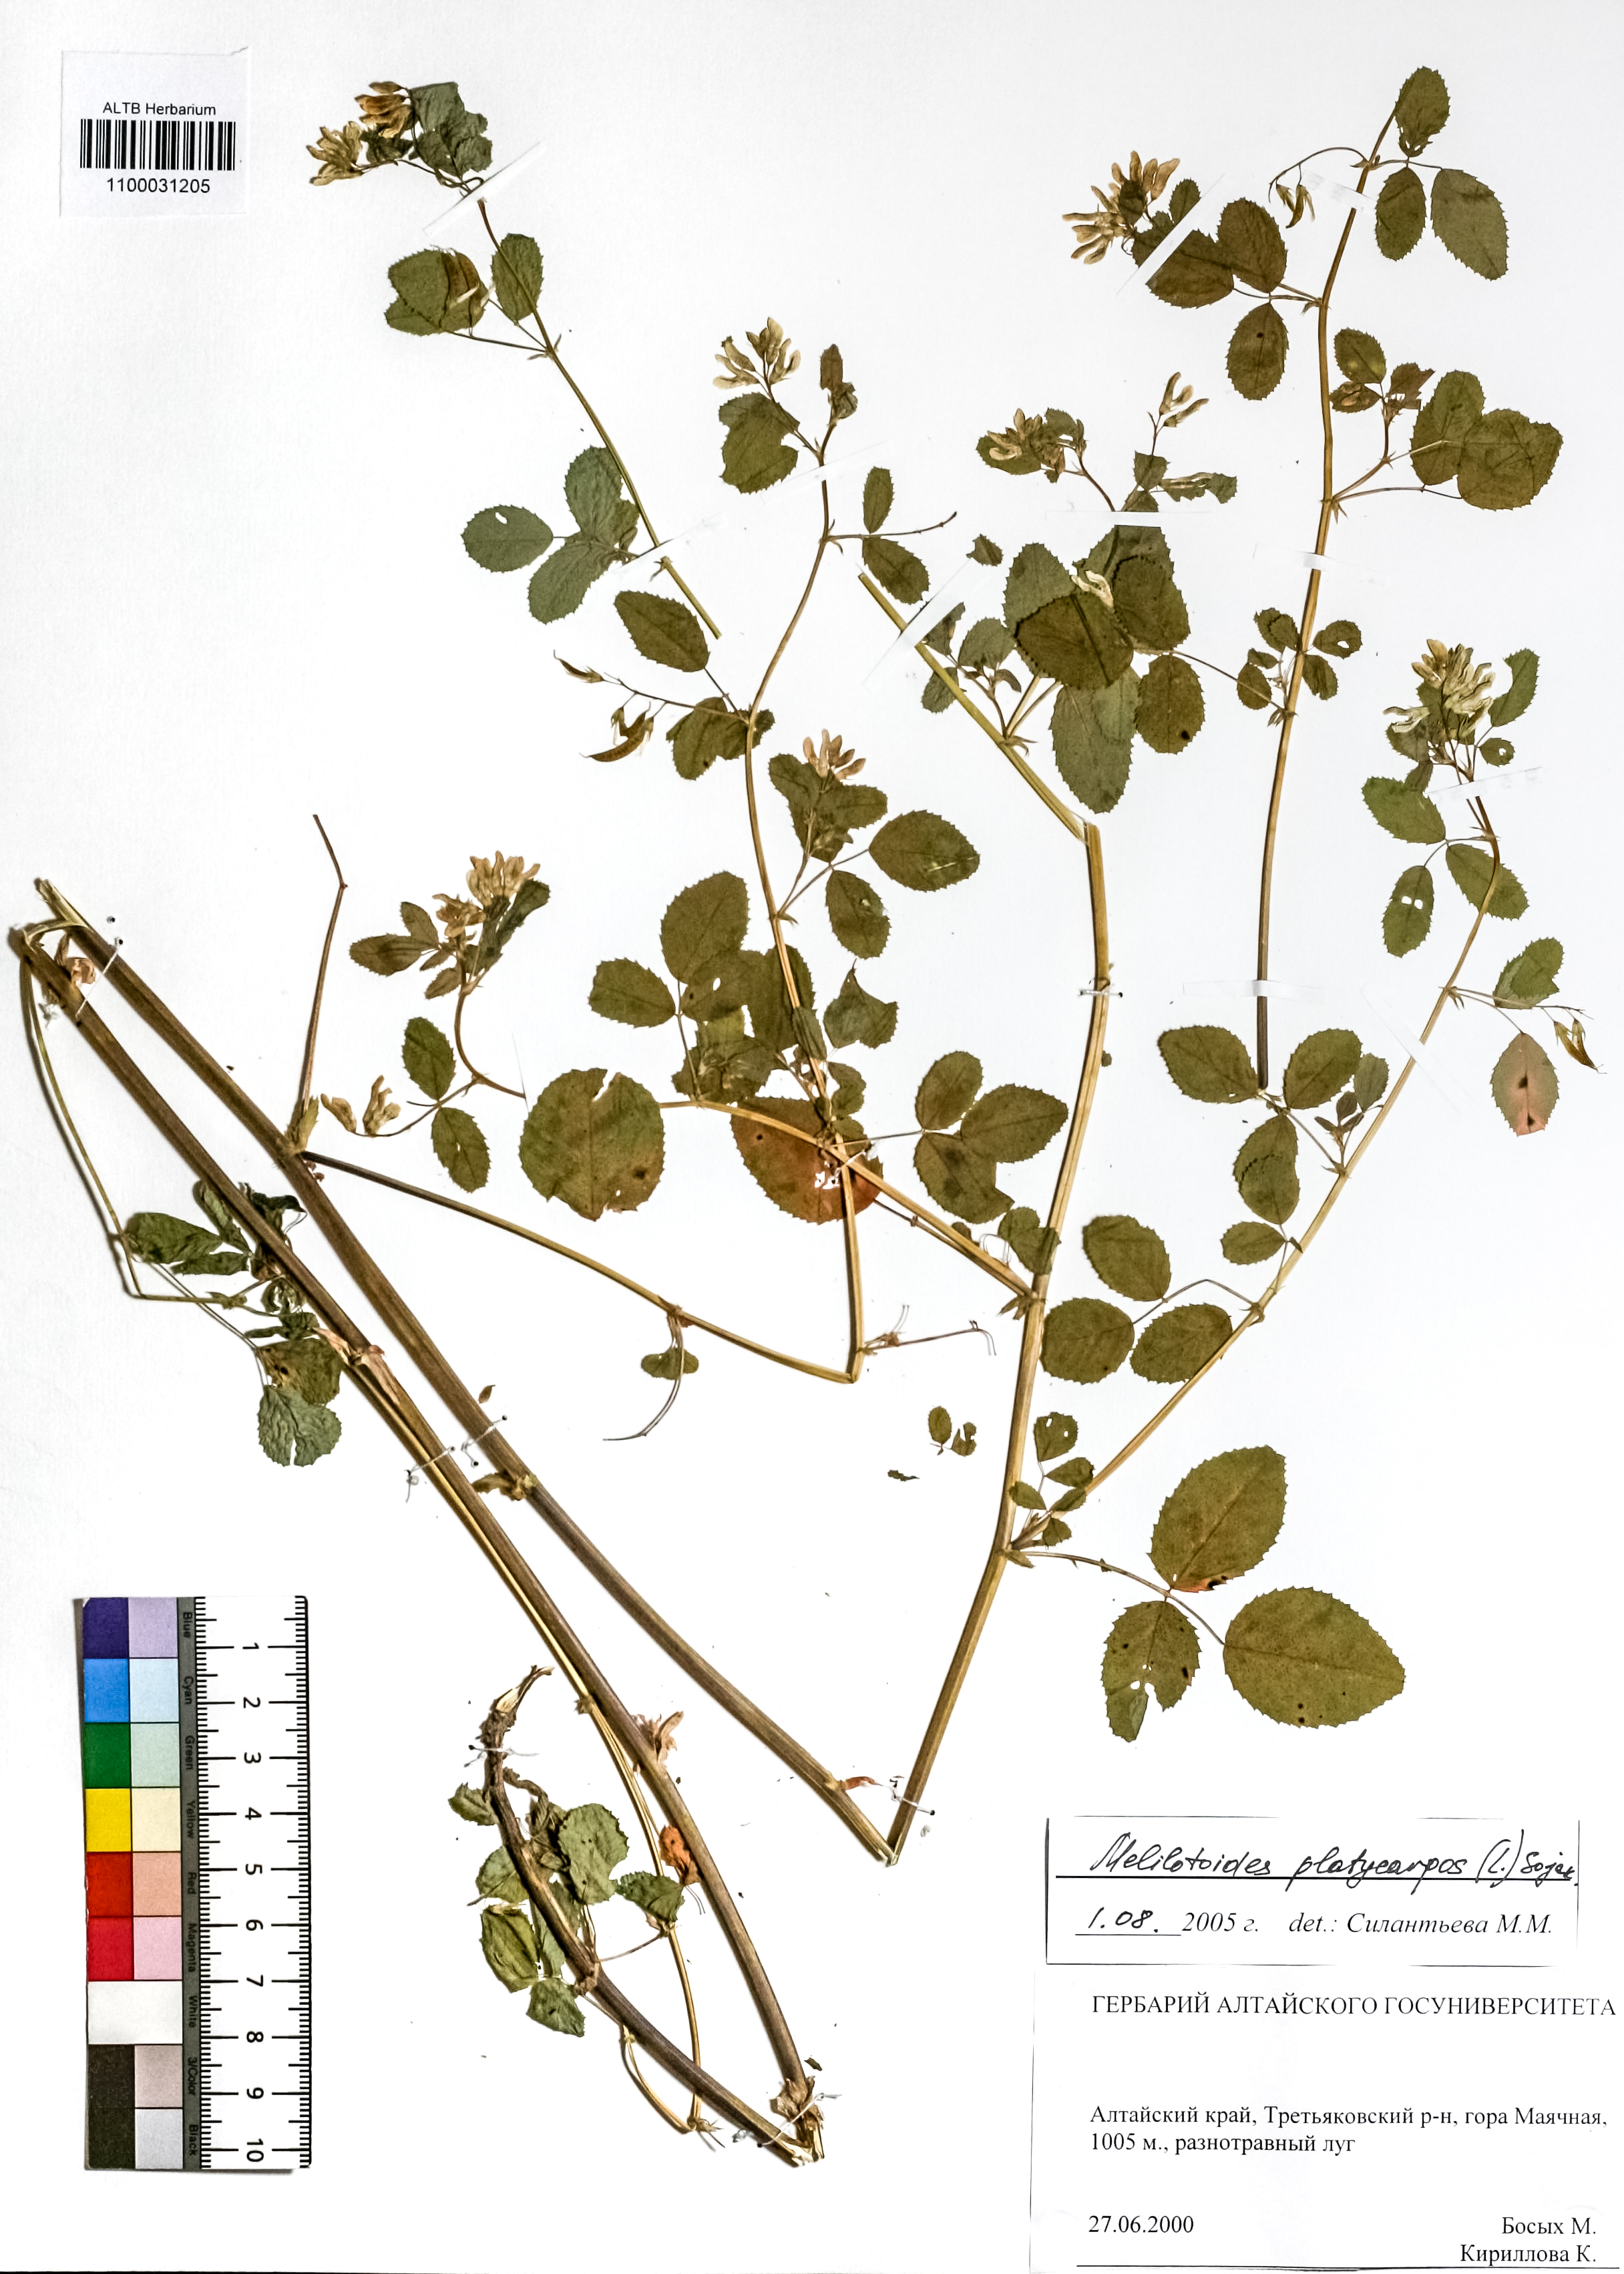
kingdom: Plantae
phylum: Tracheophyta
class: Magnoliopsida
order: Fabales
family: Fabaceae
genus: Medicago
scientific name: Medicago platycarpos
